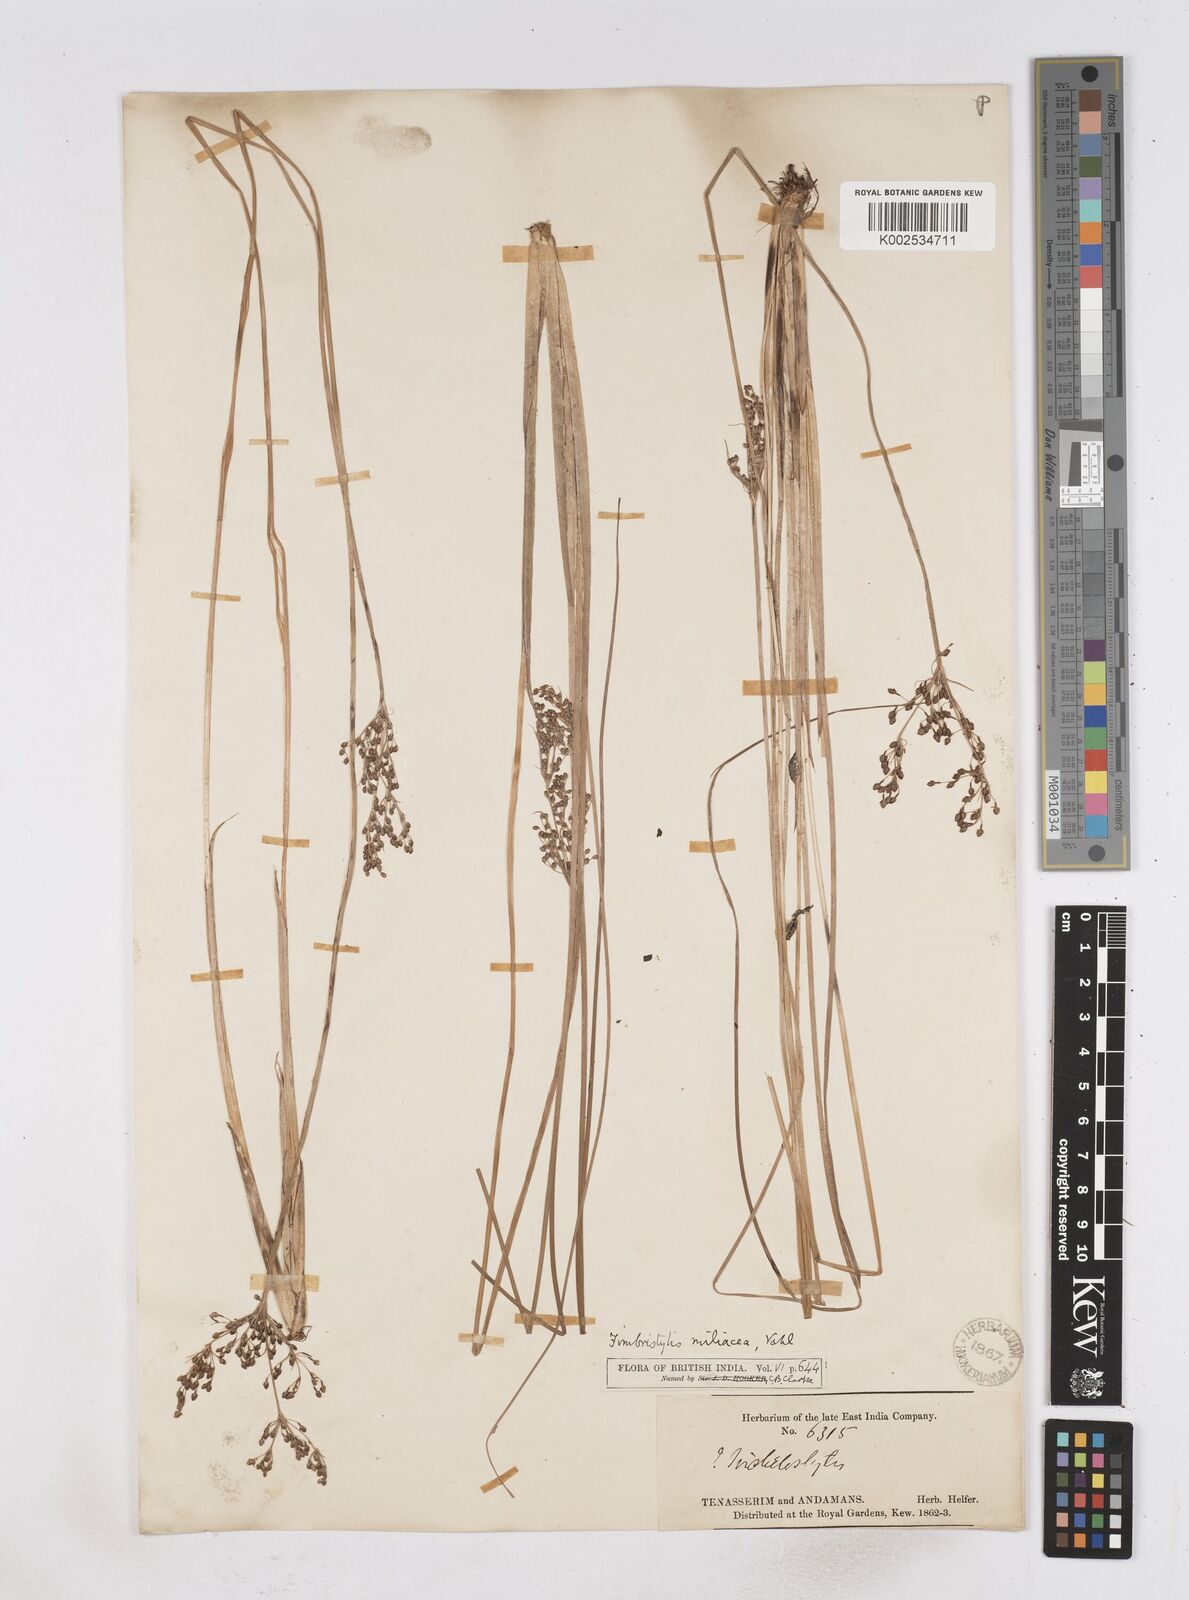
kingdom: Plantae
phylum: Tracheophyta
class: Liliopsida
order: Poales
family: Cyperaceae
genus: Fimbristylis
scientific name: Fimbristylis littoralis
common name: Fimbry
